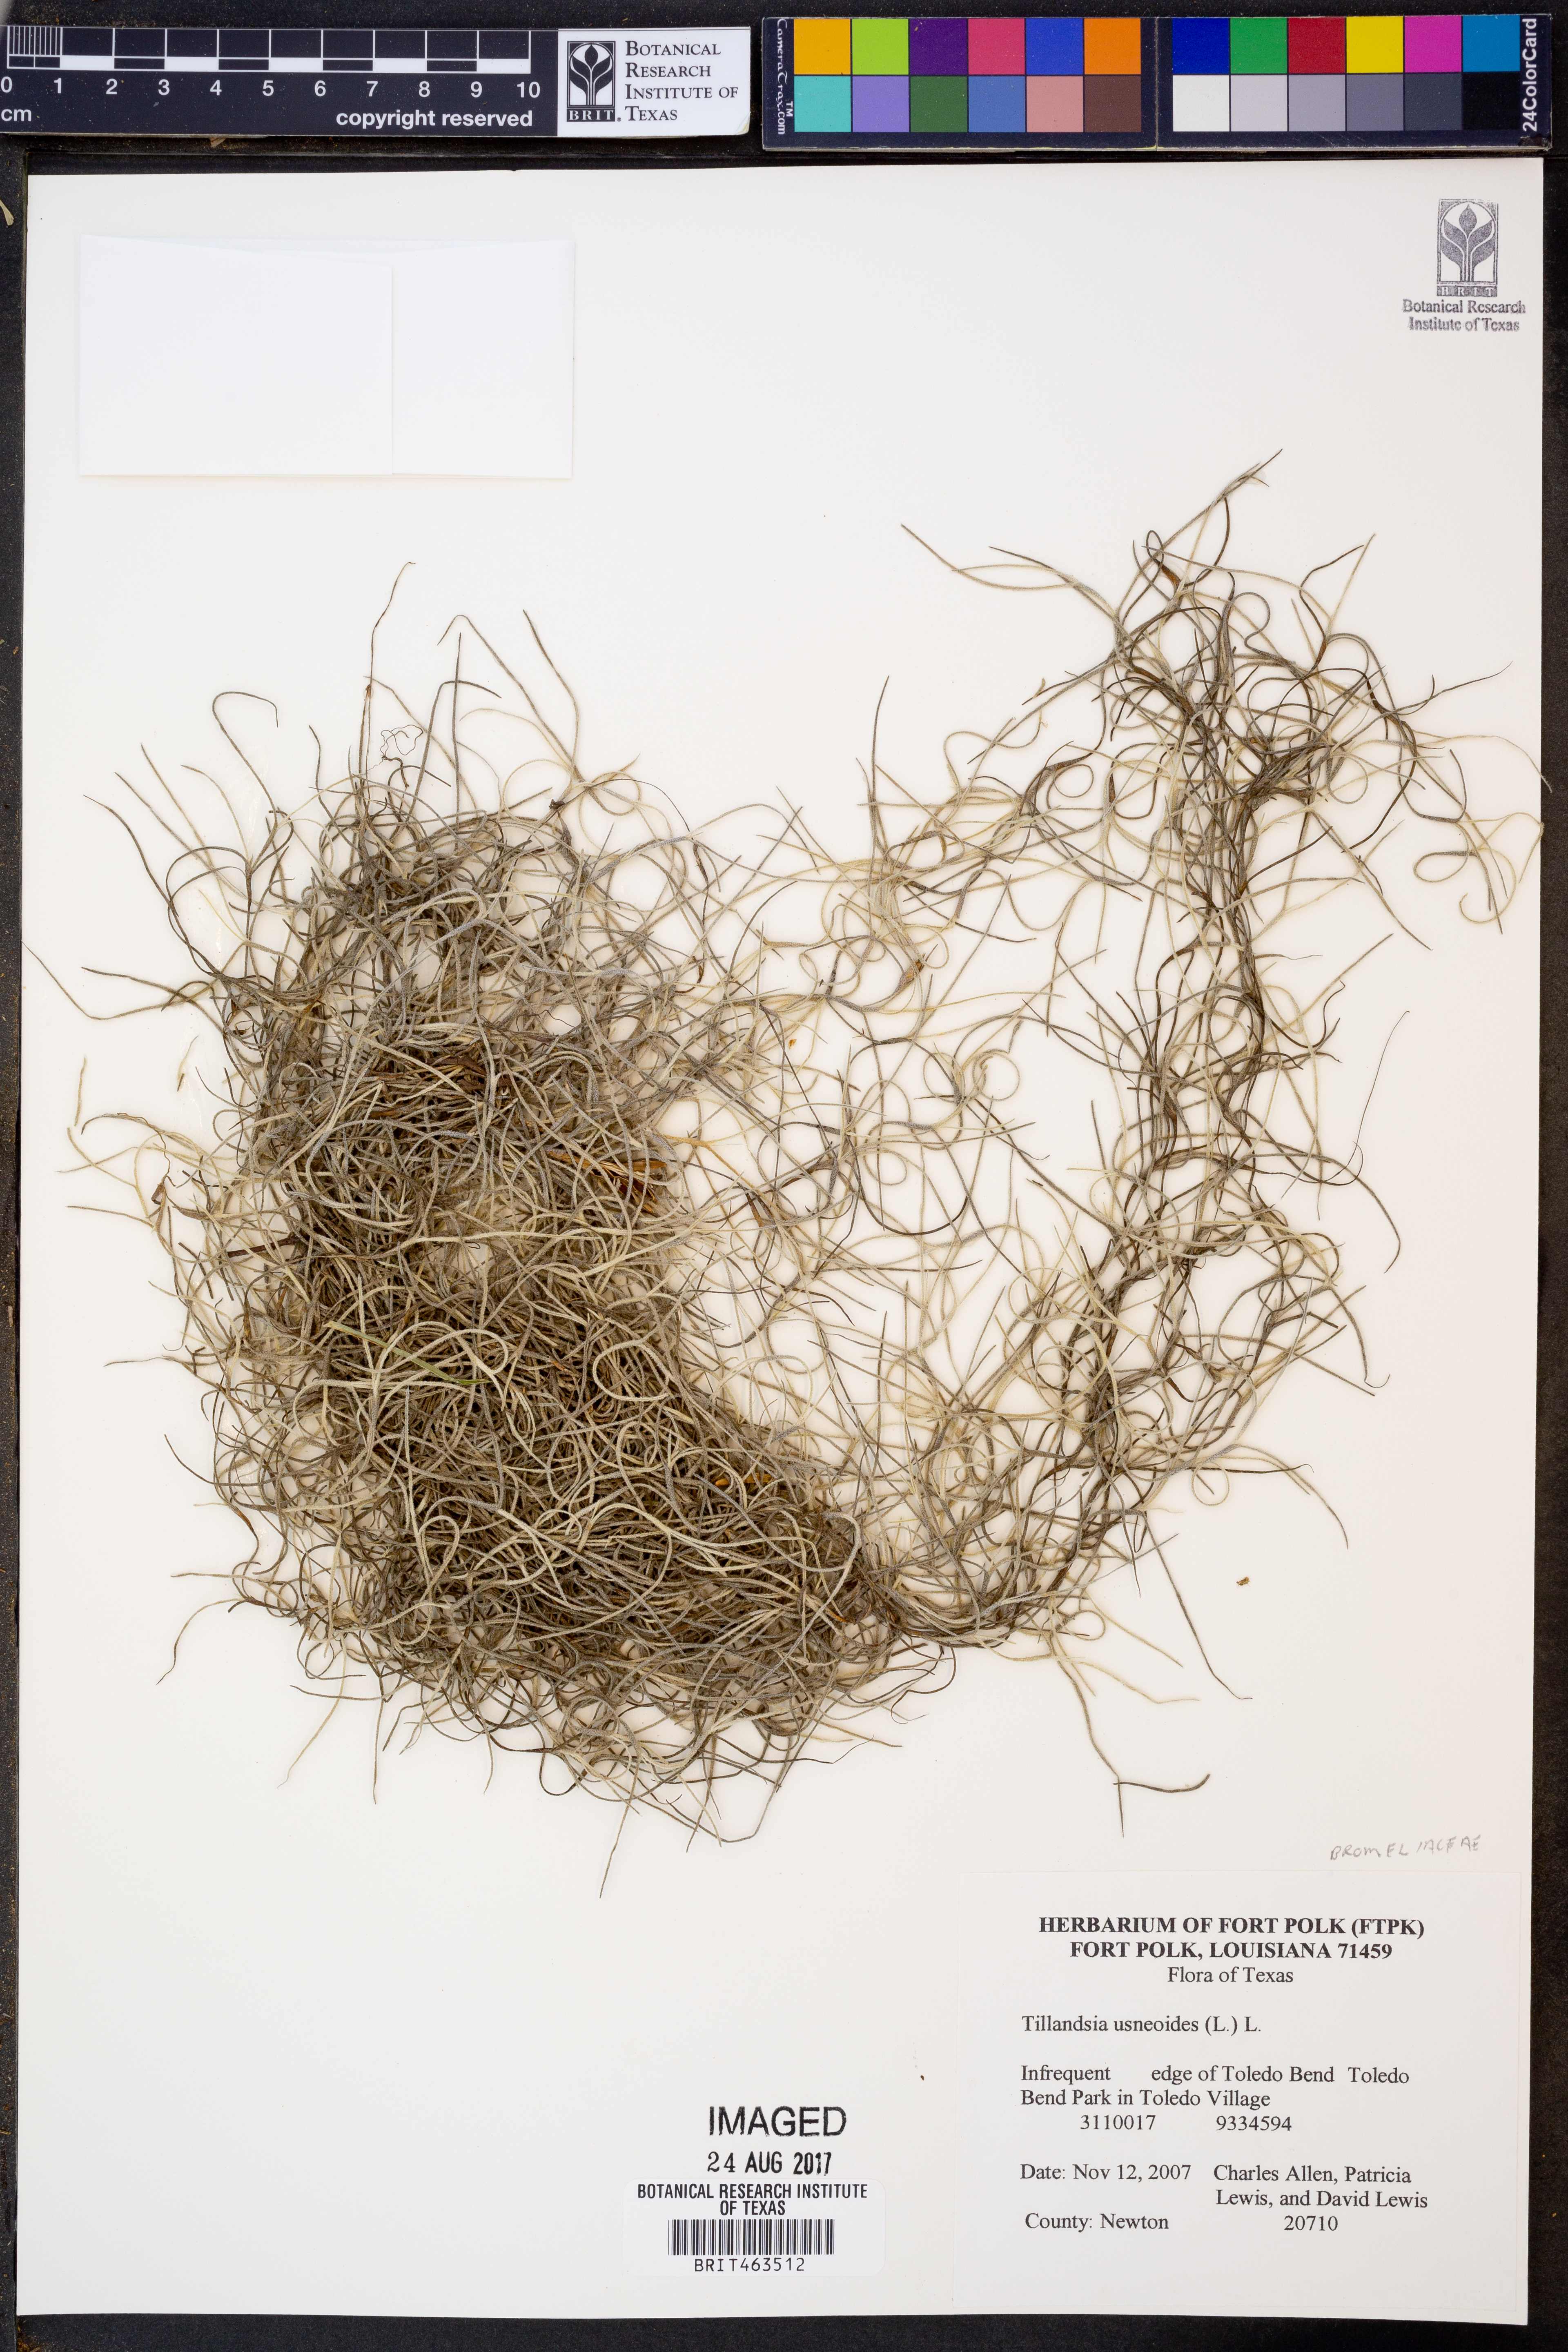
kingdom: Plantae
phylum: Tracheophyta
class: Liliopsida
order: Poales
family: Bromeliaceae
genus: Tillandsia
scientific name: Tillandsia usneoides
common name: Spanish moss
